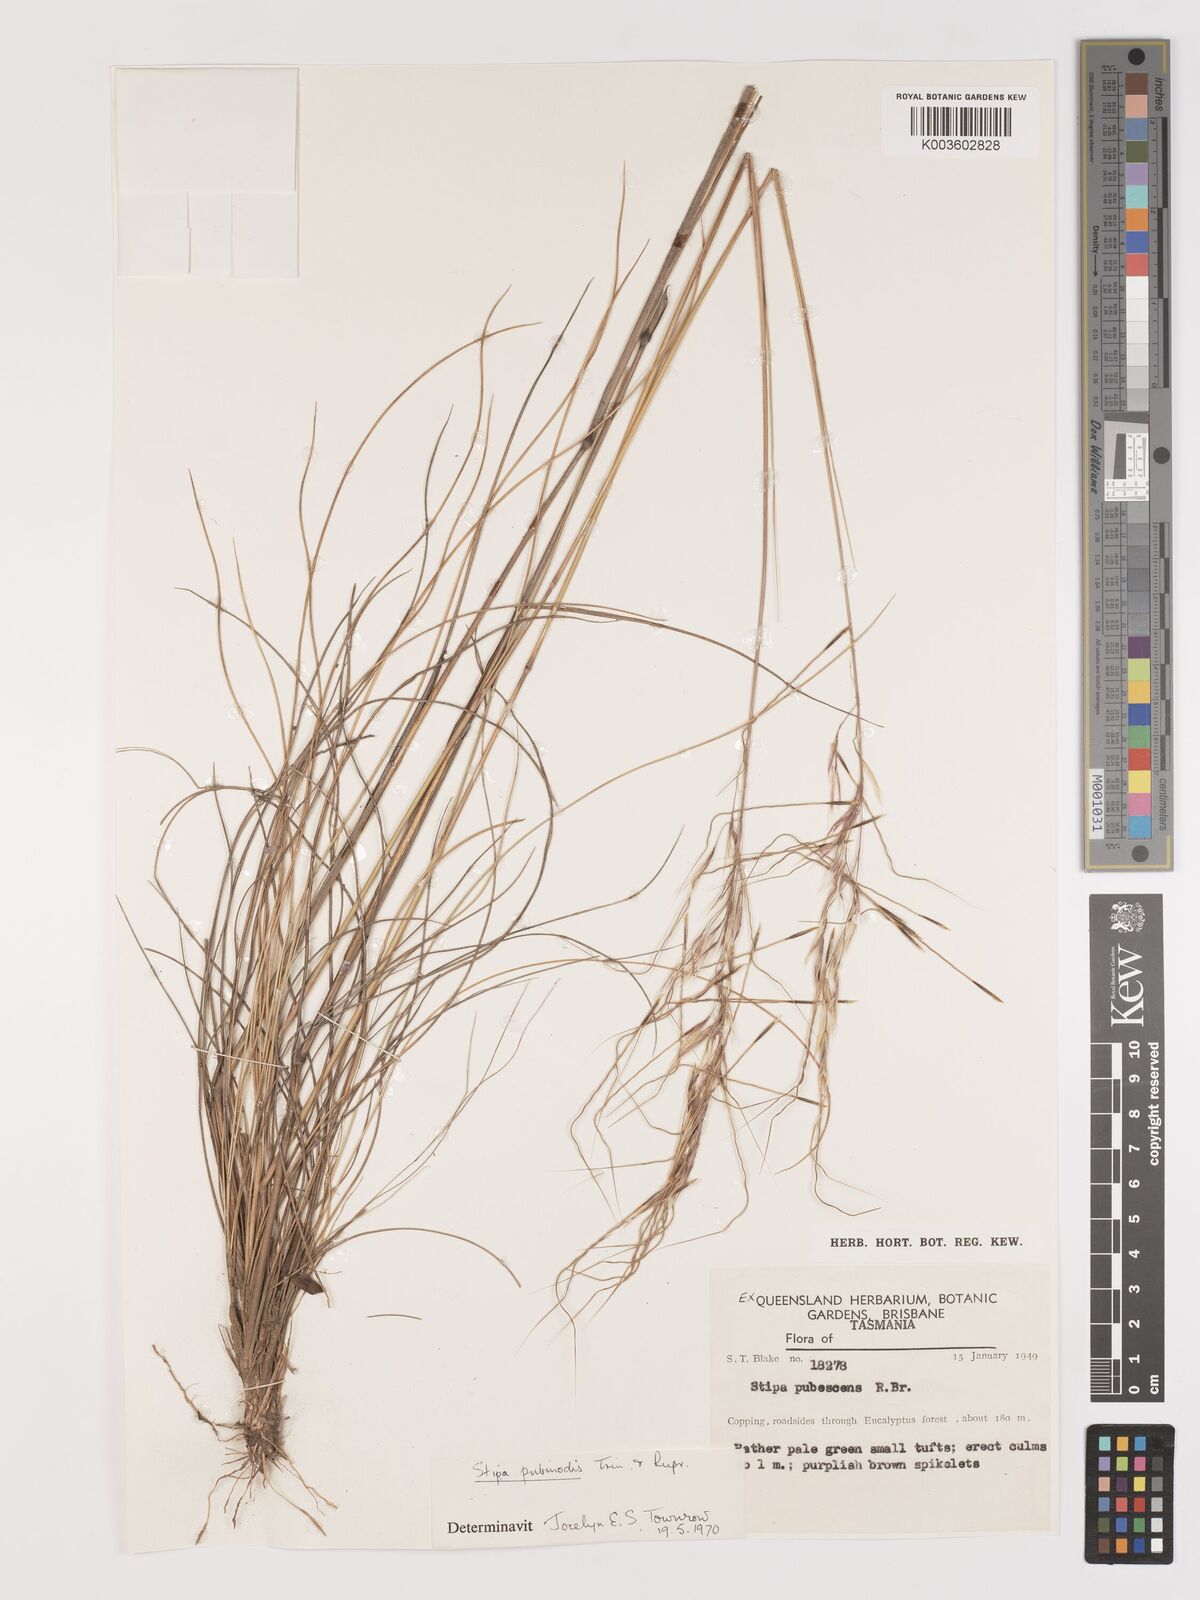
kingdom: Plantae
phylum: Tracheophyta
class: Liliopsida
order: Poales
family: Poaceae
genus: Austrostipa
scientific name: Austrostipa pubinodis
